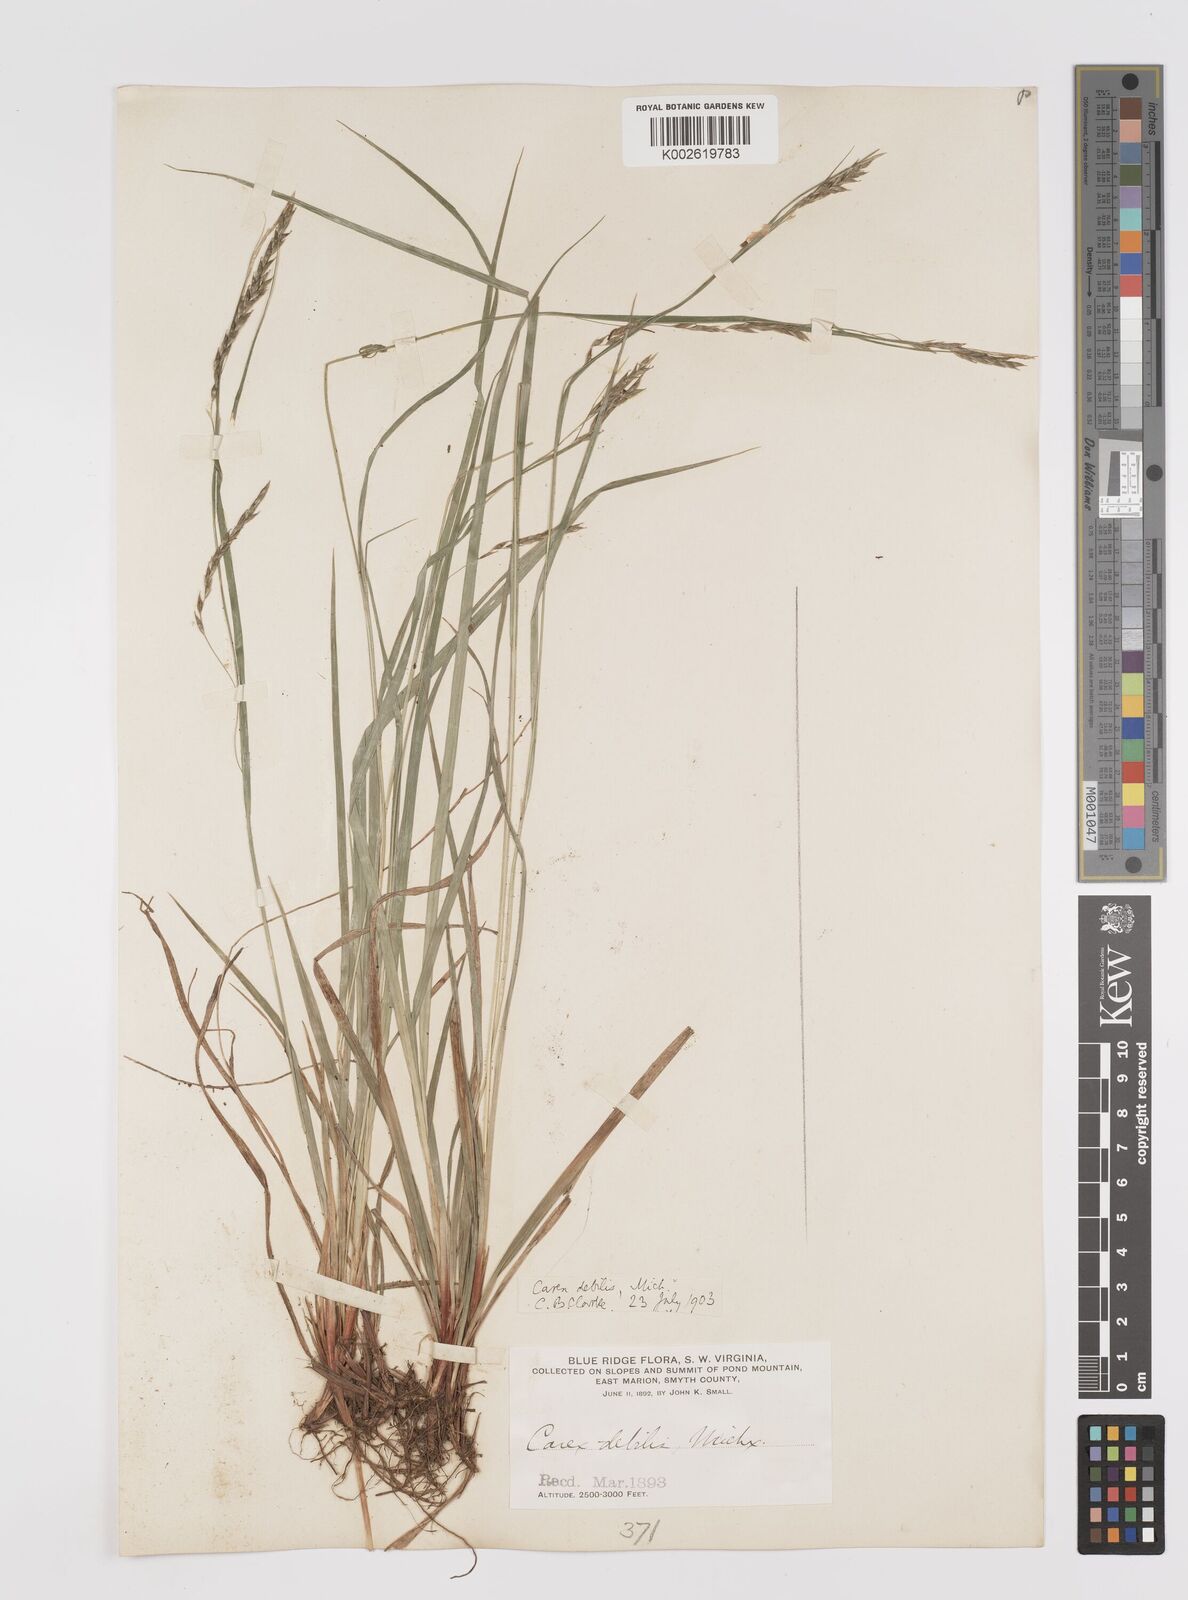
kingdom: Plantae
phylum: Tracheophyta
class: Liliopsida
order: Poales
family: Cyperaceae
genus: Carex
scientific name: Carex debilis
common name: White-edge sedge
